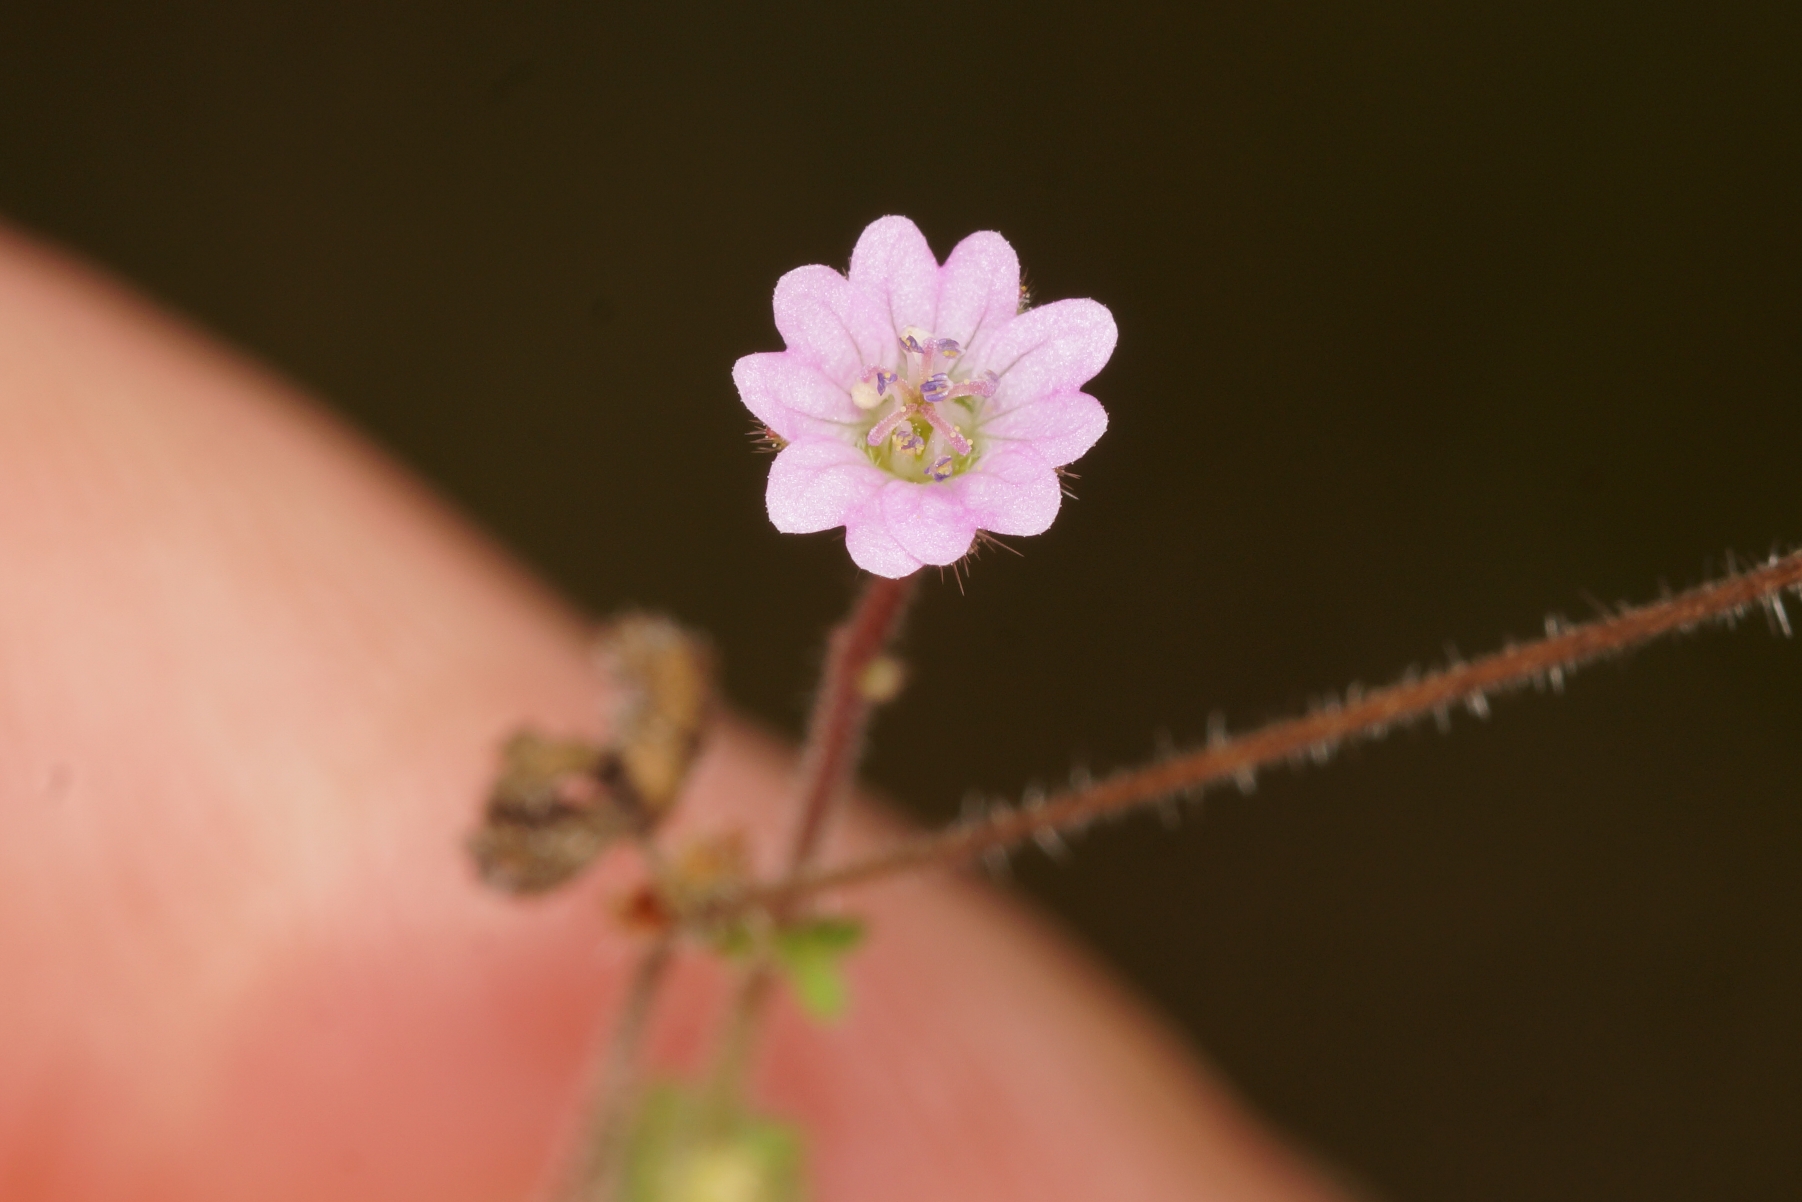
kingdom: Plantae
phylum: Tracheophyta
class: Magnoliopsida
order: Geraniales
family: Geraniaceae
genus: Geranium
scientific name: Geranium molle
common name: Blød storkenæb
